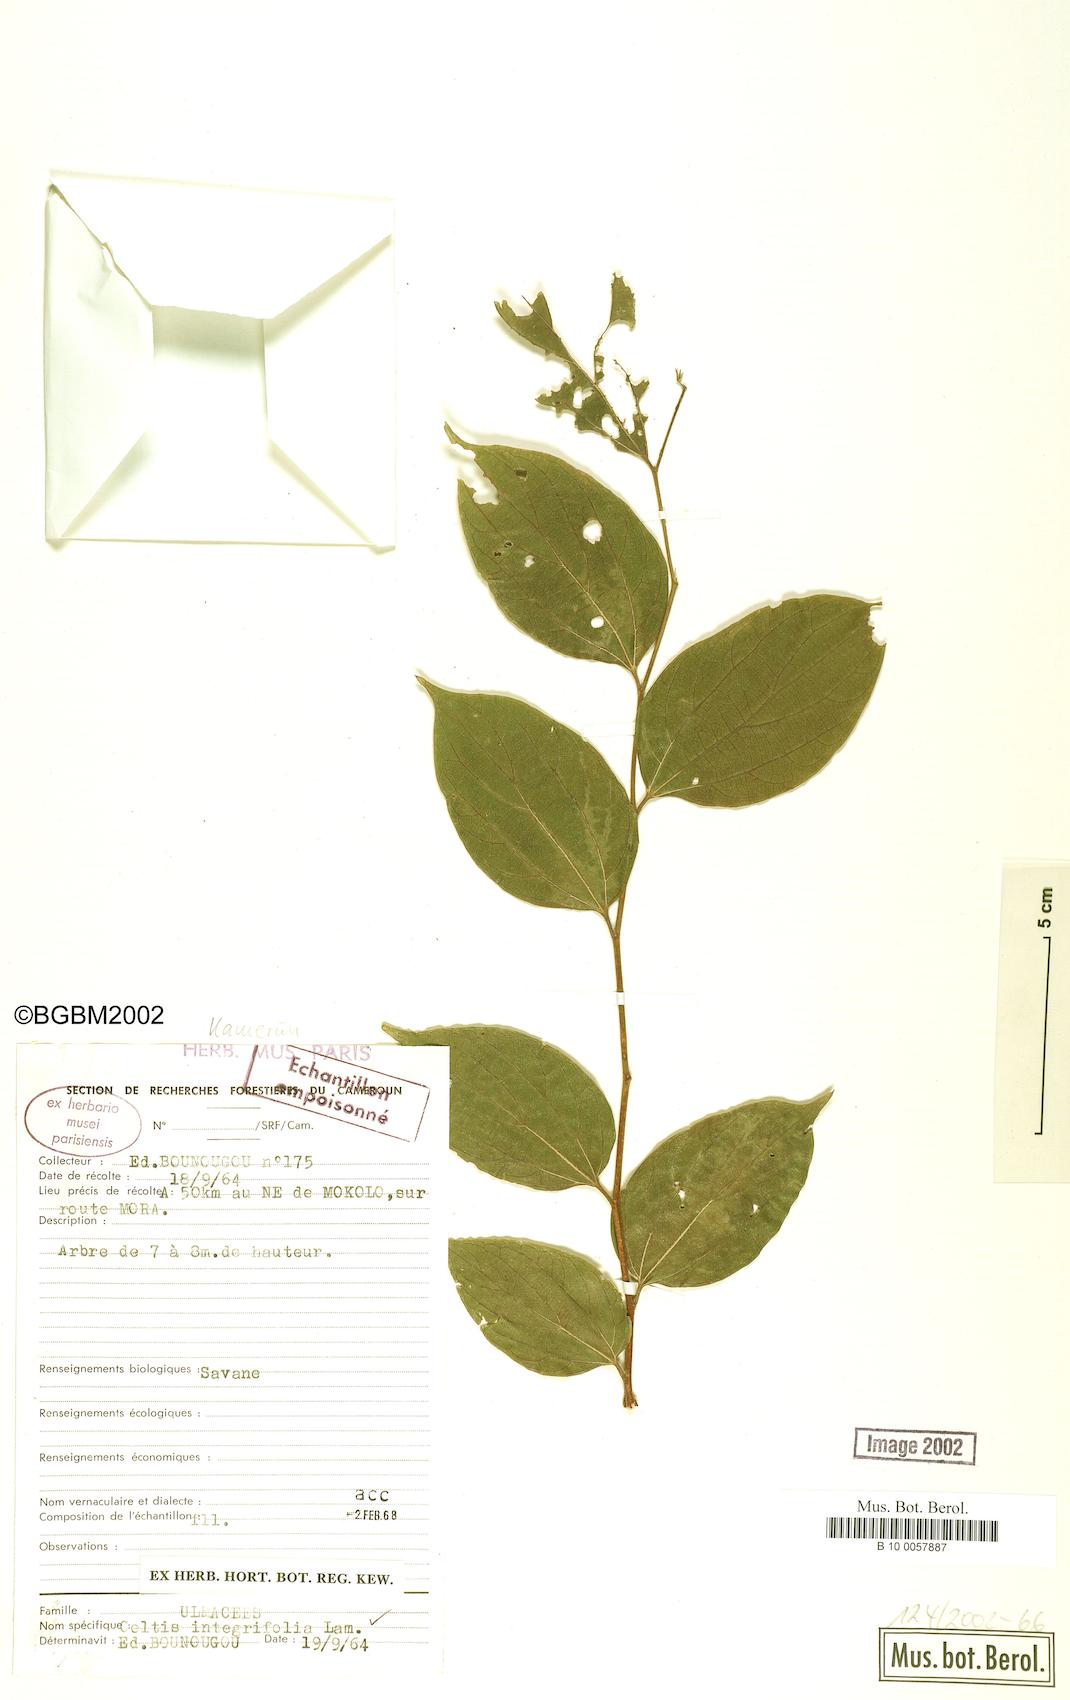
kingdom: Plantae
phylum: Tracheophyta
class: Magnoliopsida
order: Rosales
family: Cannabaceae
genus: Celtis
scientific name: Celtis toka
